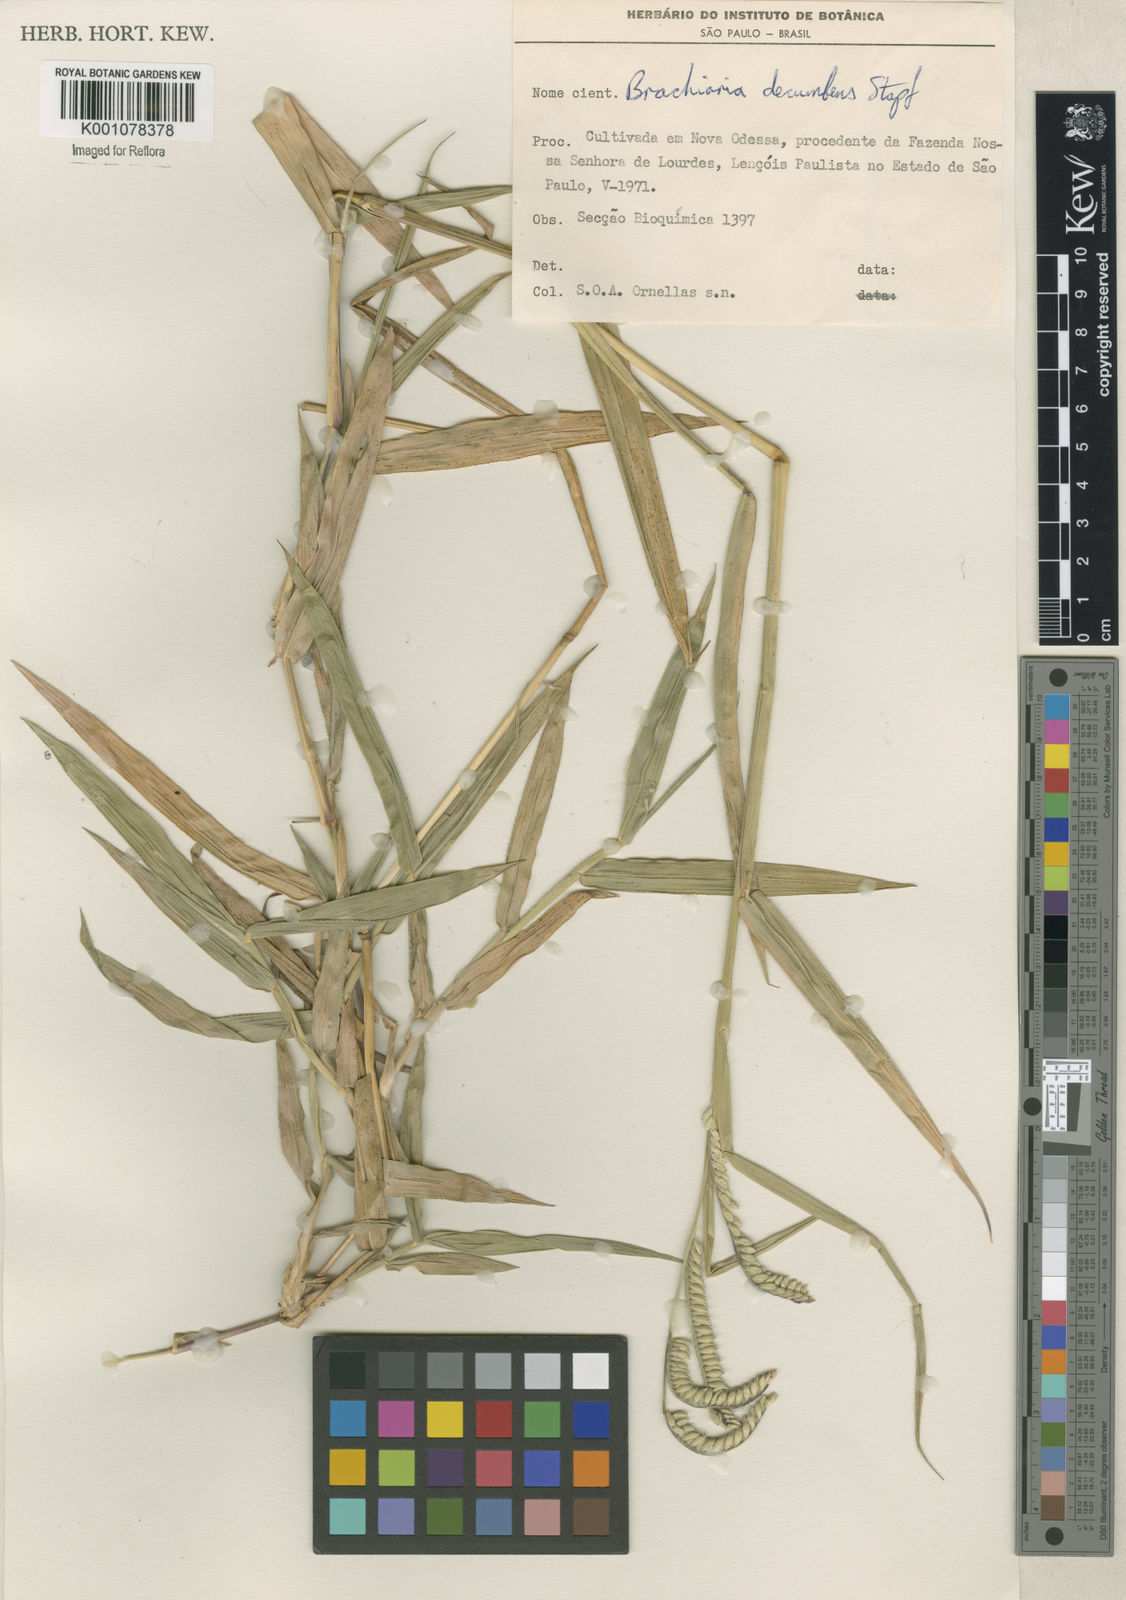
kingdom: Plantae
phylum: Tracheophyta
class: Liliopsida
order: Poales
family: Poaceae
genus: Urochloa
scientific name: Urochloa brizantha
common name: Palisade signalgrass
